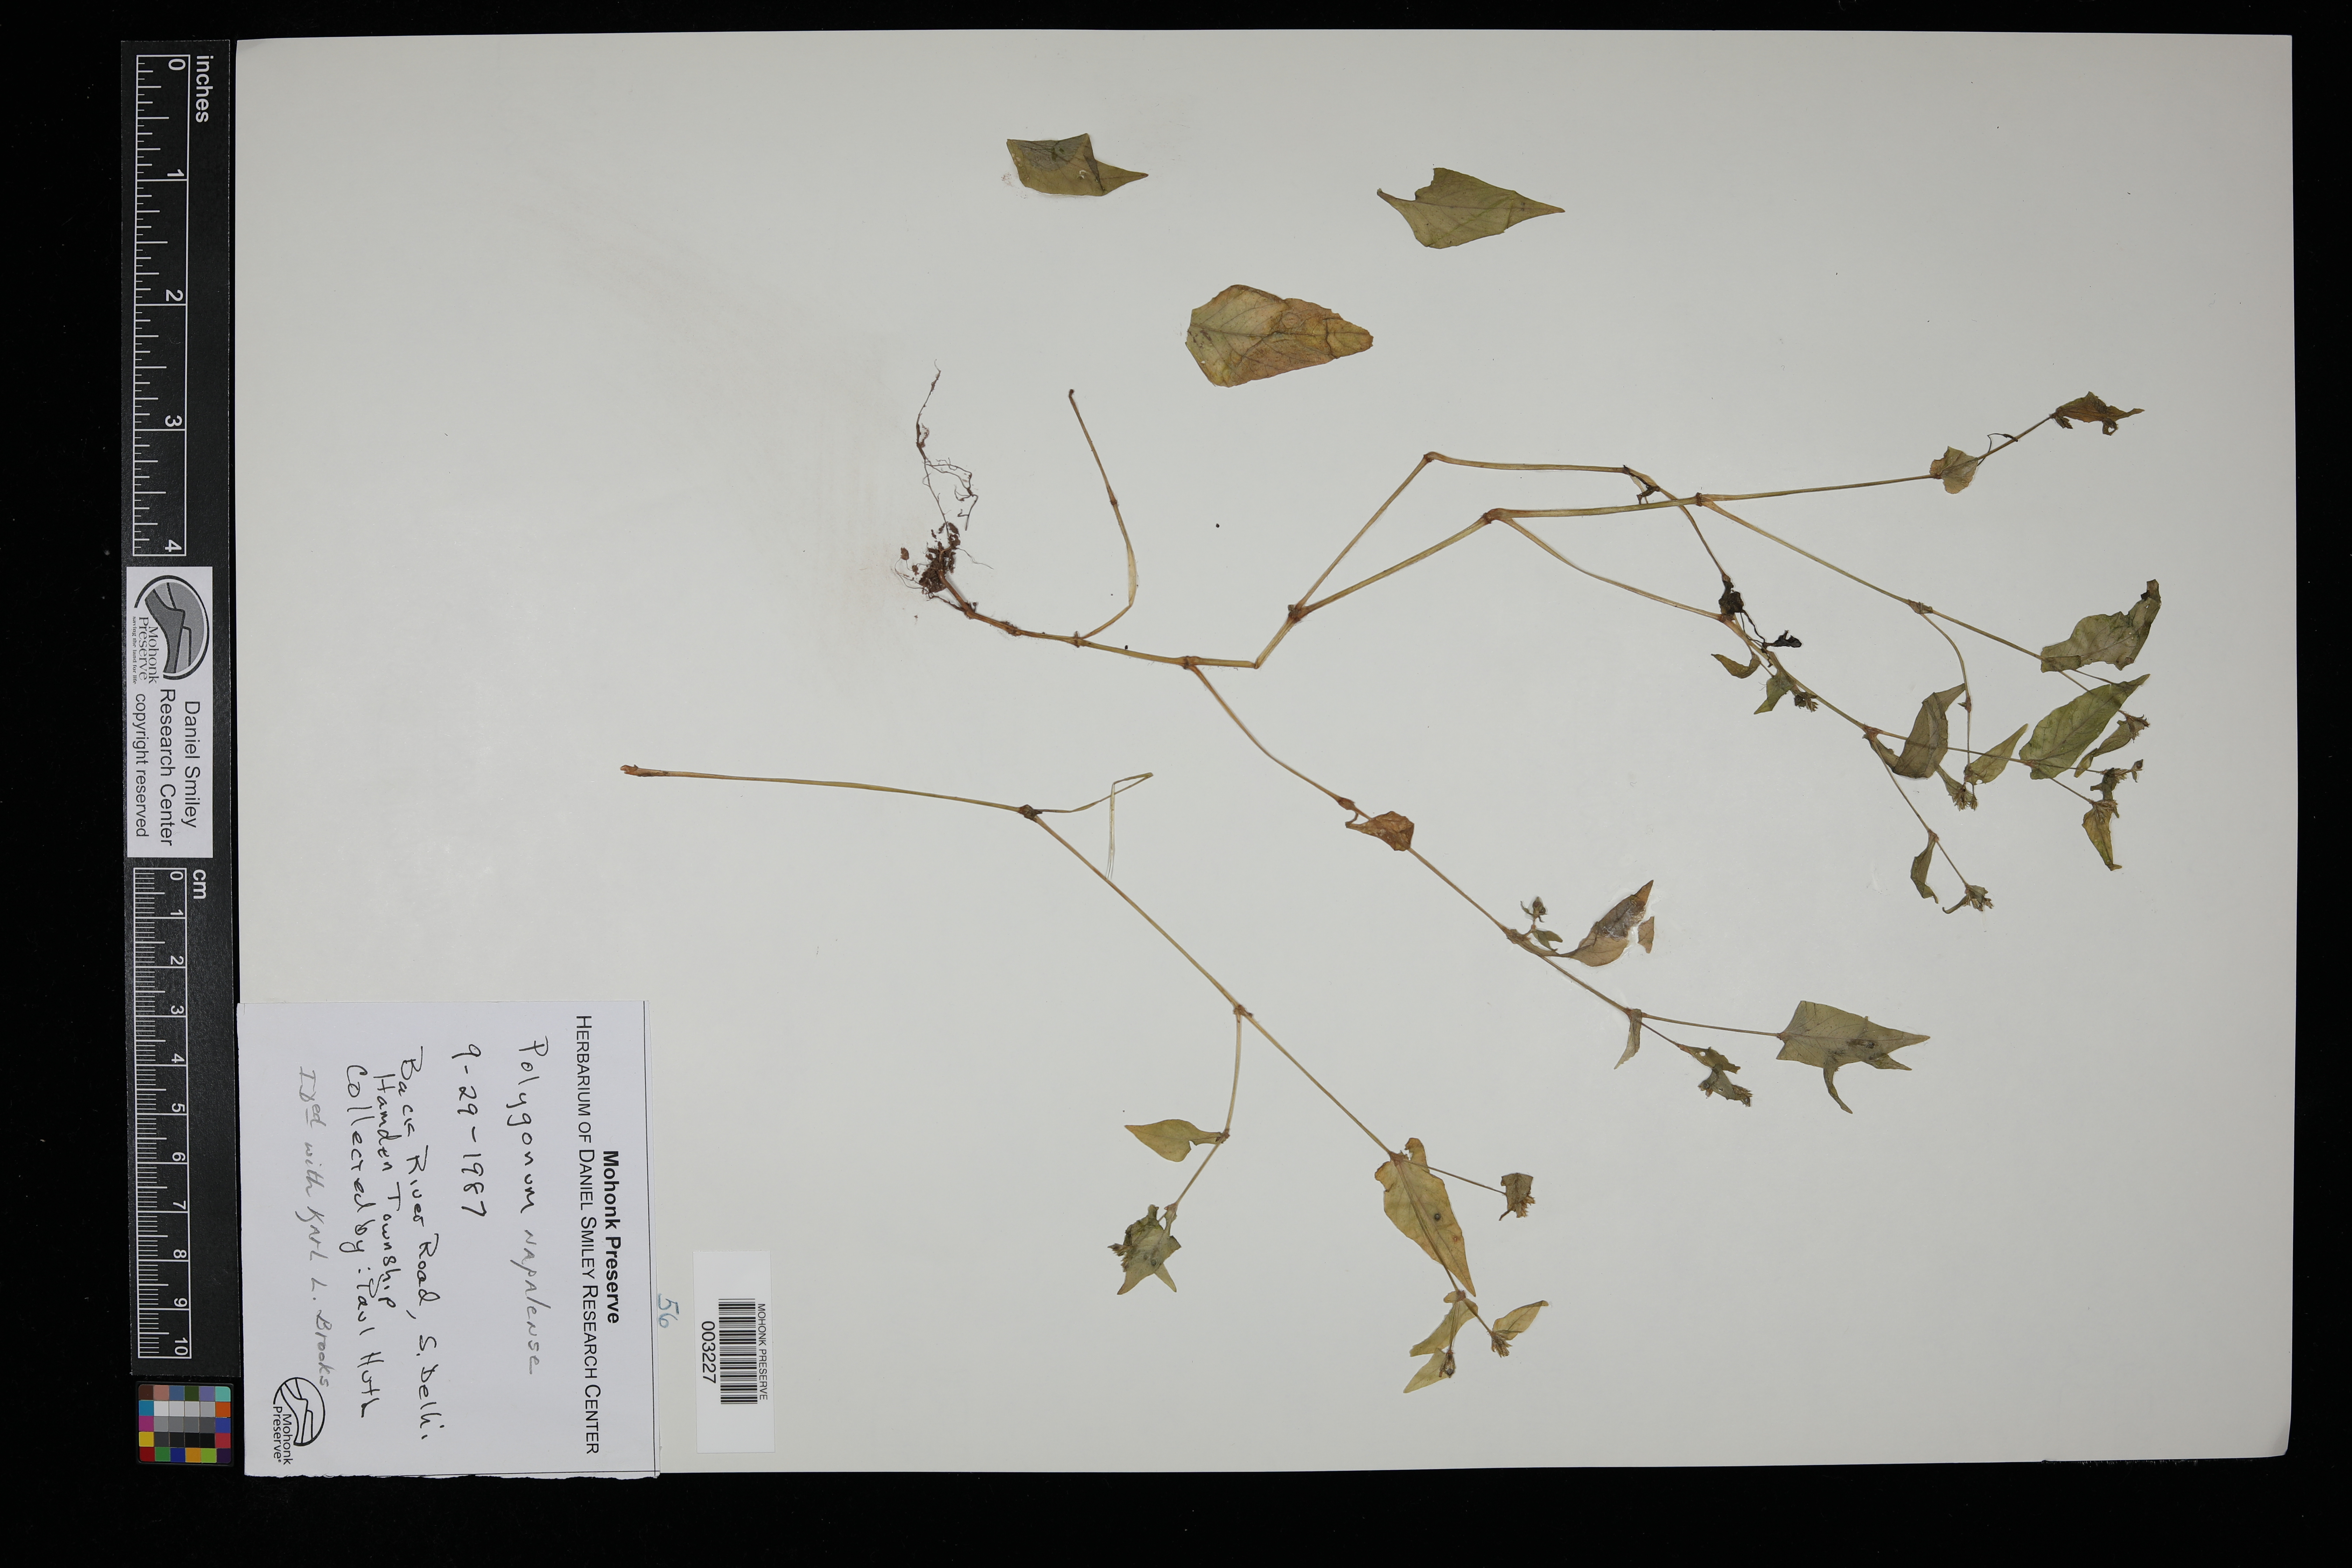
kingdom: Plantae
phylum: Tracheophyta
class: Magnoliopsida
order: Caryophyllales
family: Polygonaceae
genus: Persicaria
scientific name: Persicaria nepalensis
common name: Nepal persicaria
